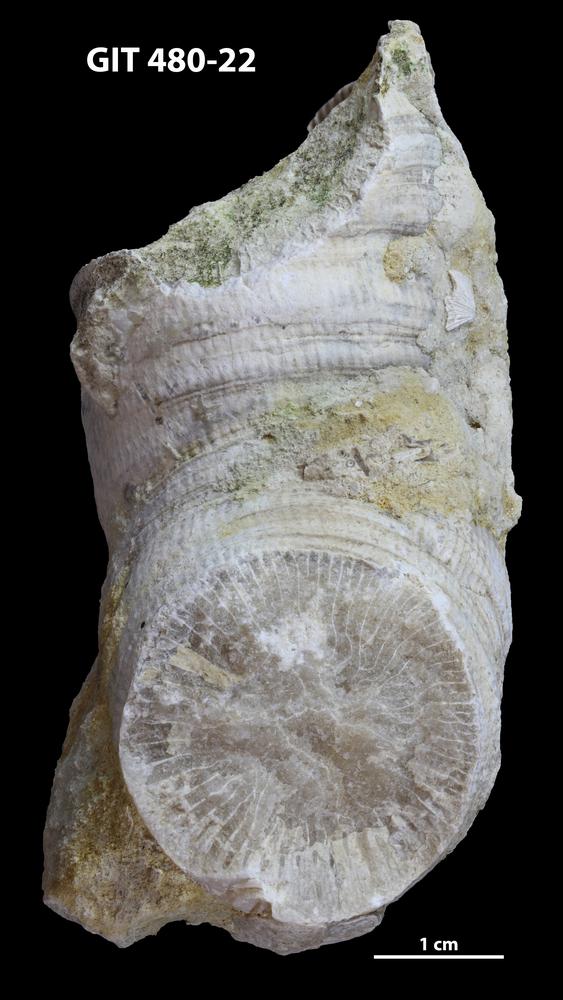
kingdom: Animalia
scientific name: Animalia
